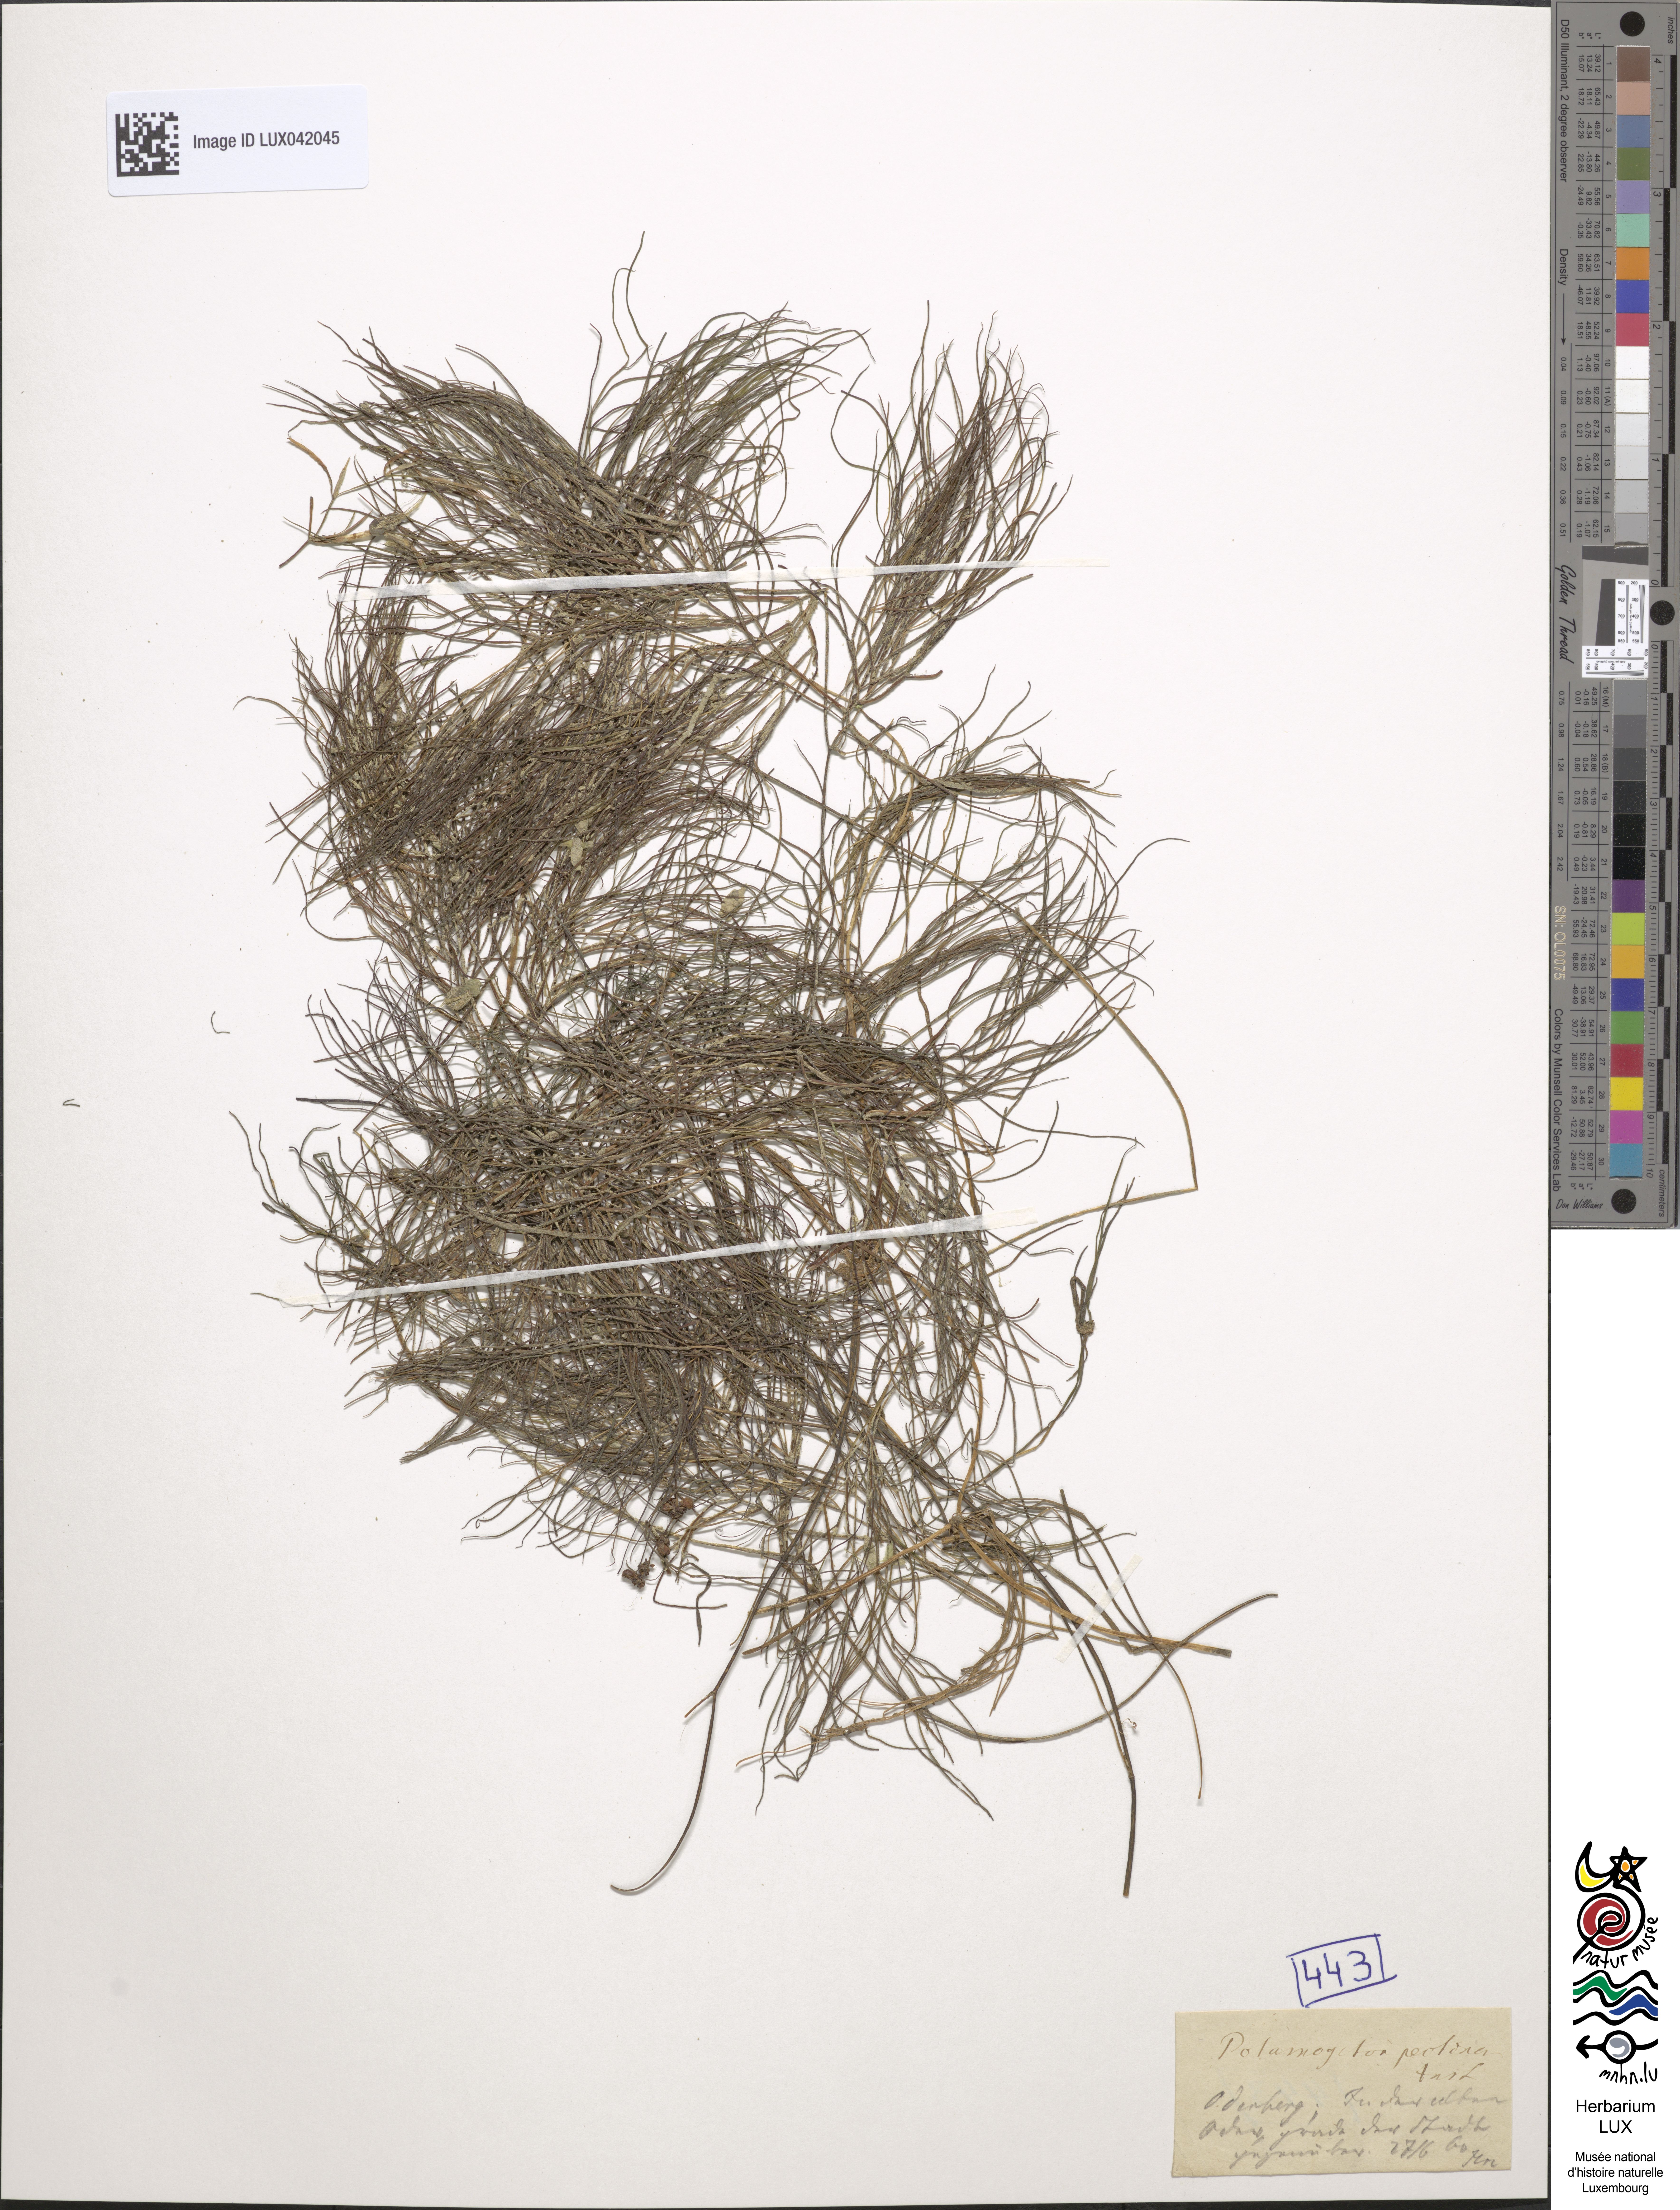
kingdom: Plantae
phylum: Tracheophyta
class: Liliopsida
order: Alismatales
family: Potamogetonaceae
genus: Stuckenia
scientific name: Stuckenia pectinata
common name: Sago pondweed
